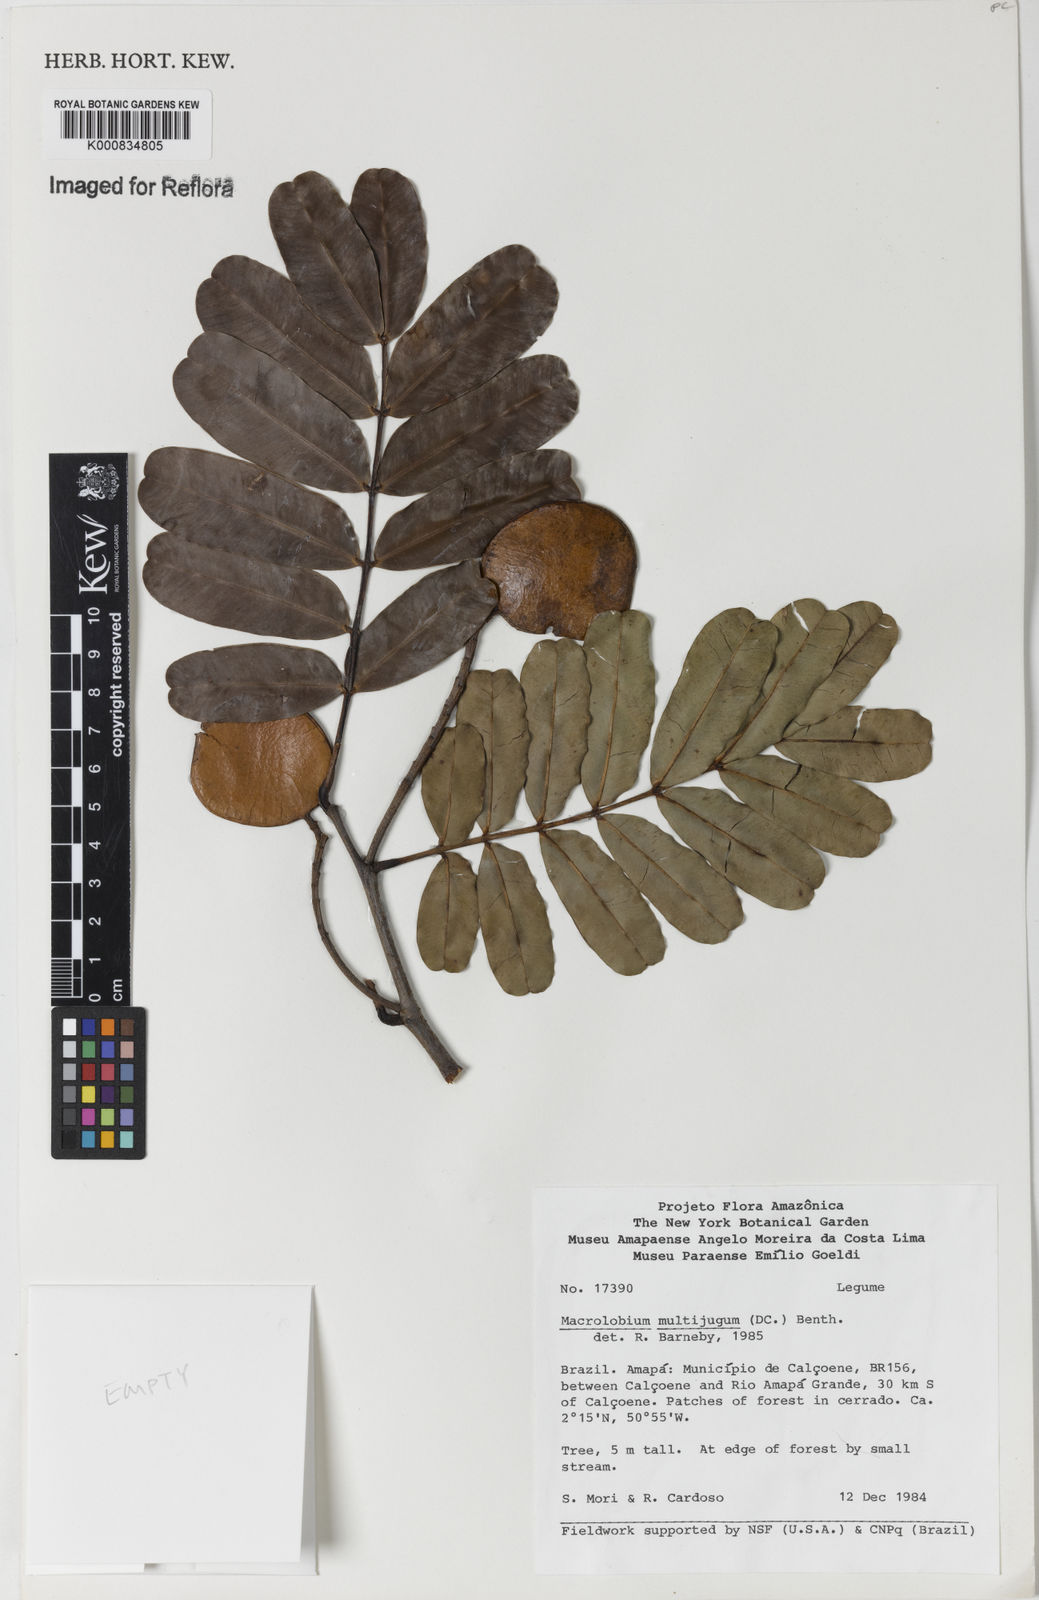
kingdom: Plantae
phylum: Tracheophyta
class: Magnoliopsida
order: Fabales
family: Fabaceae
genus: Macrolobium
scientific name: Macrolobium multijugum
